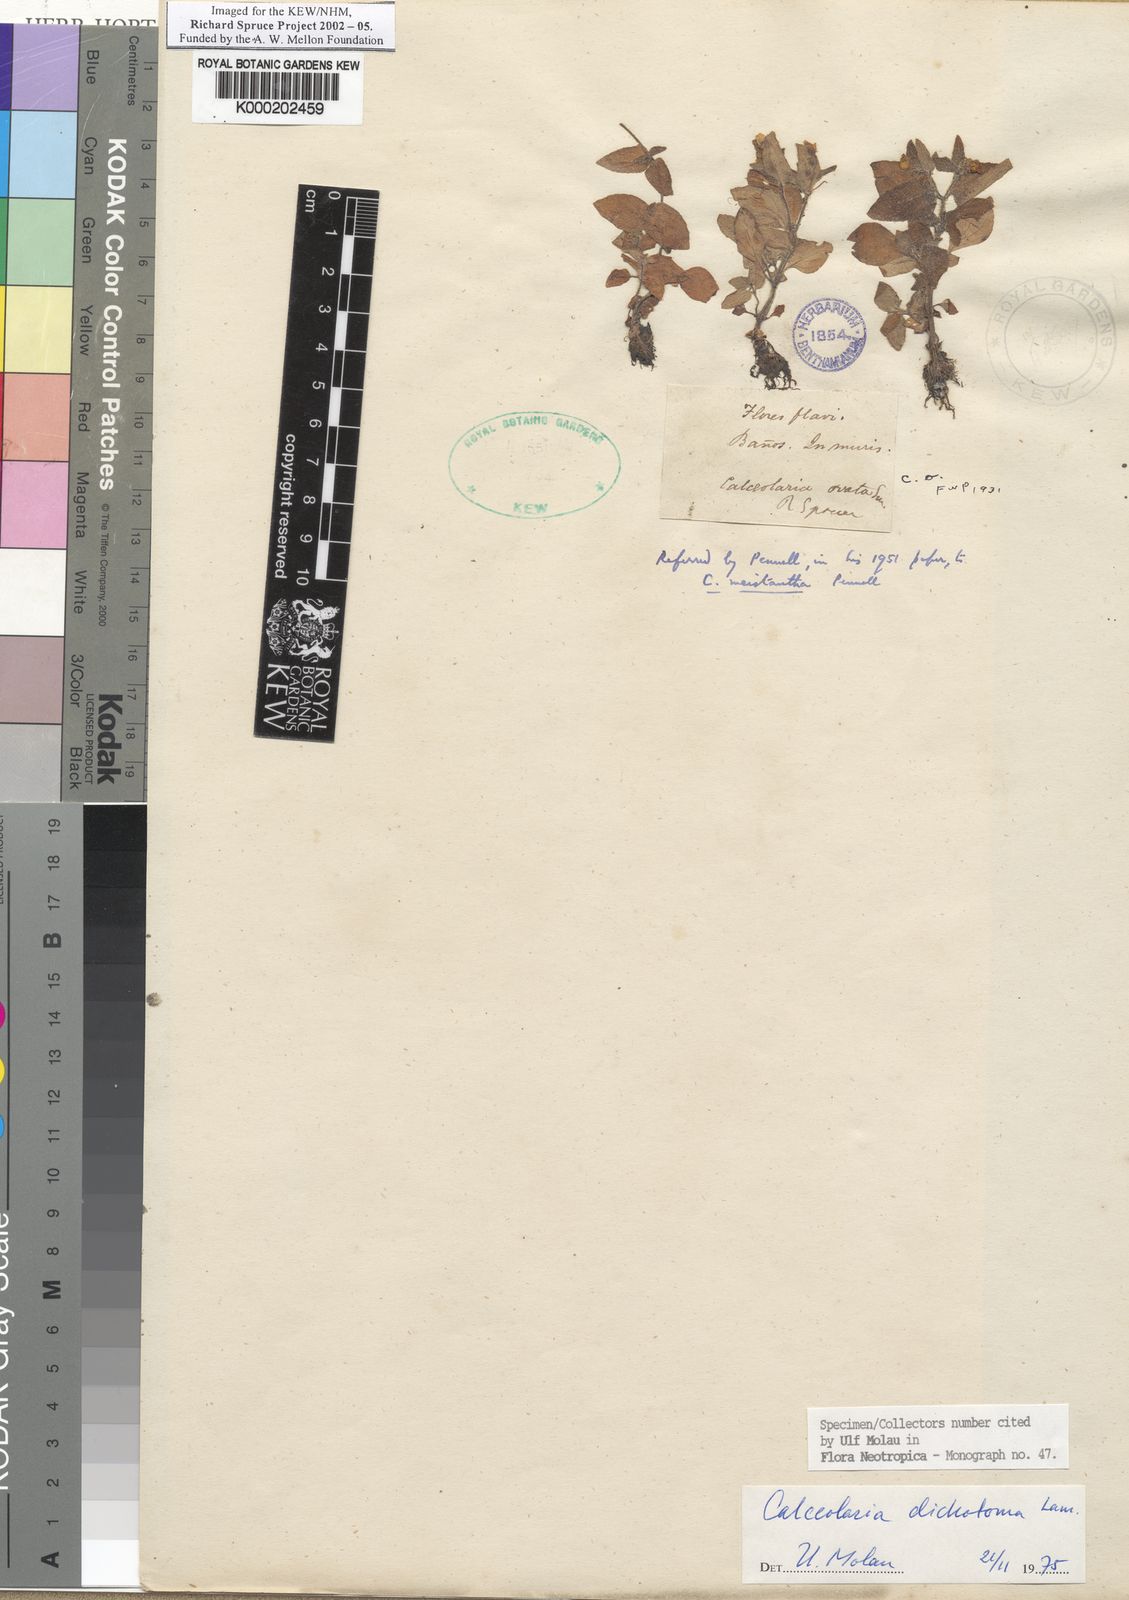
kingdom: Plantae
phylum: Tracheophyta
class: Magnoliopsida
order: Lamiales
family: Calceolariaceae
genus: Calceolaria
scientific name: Calceolaria dichotoma
